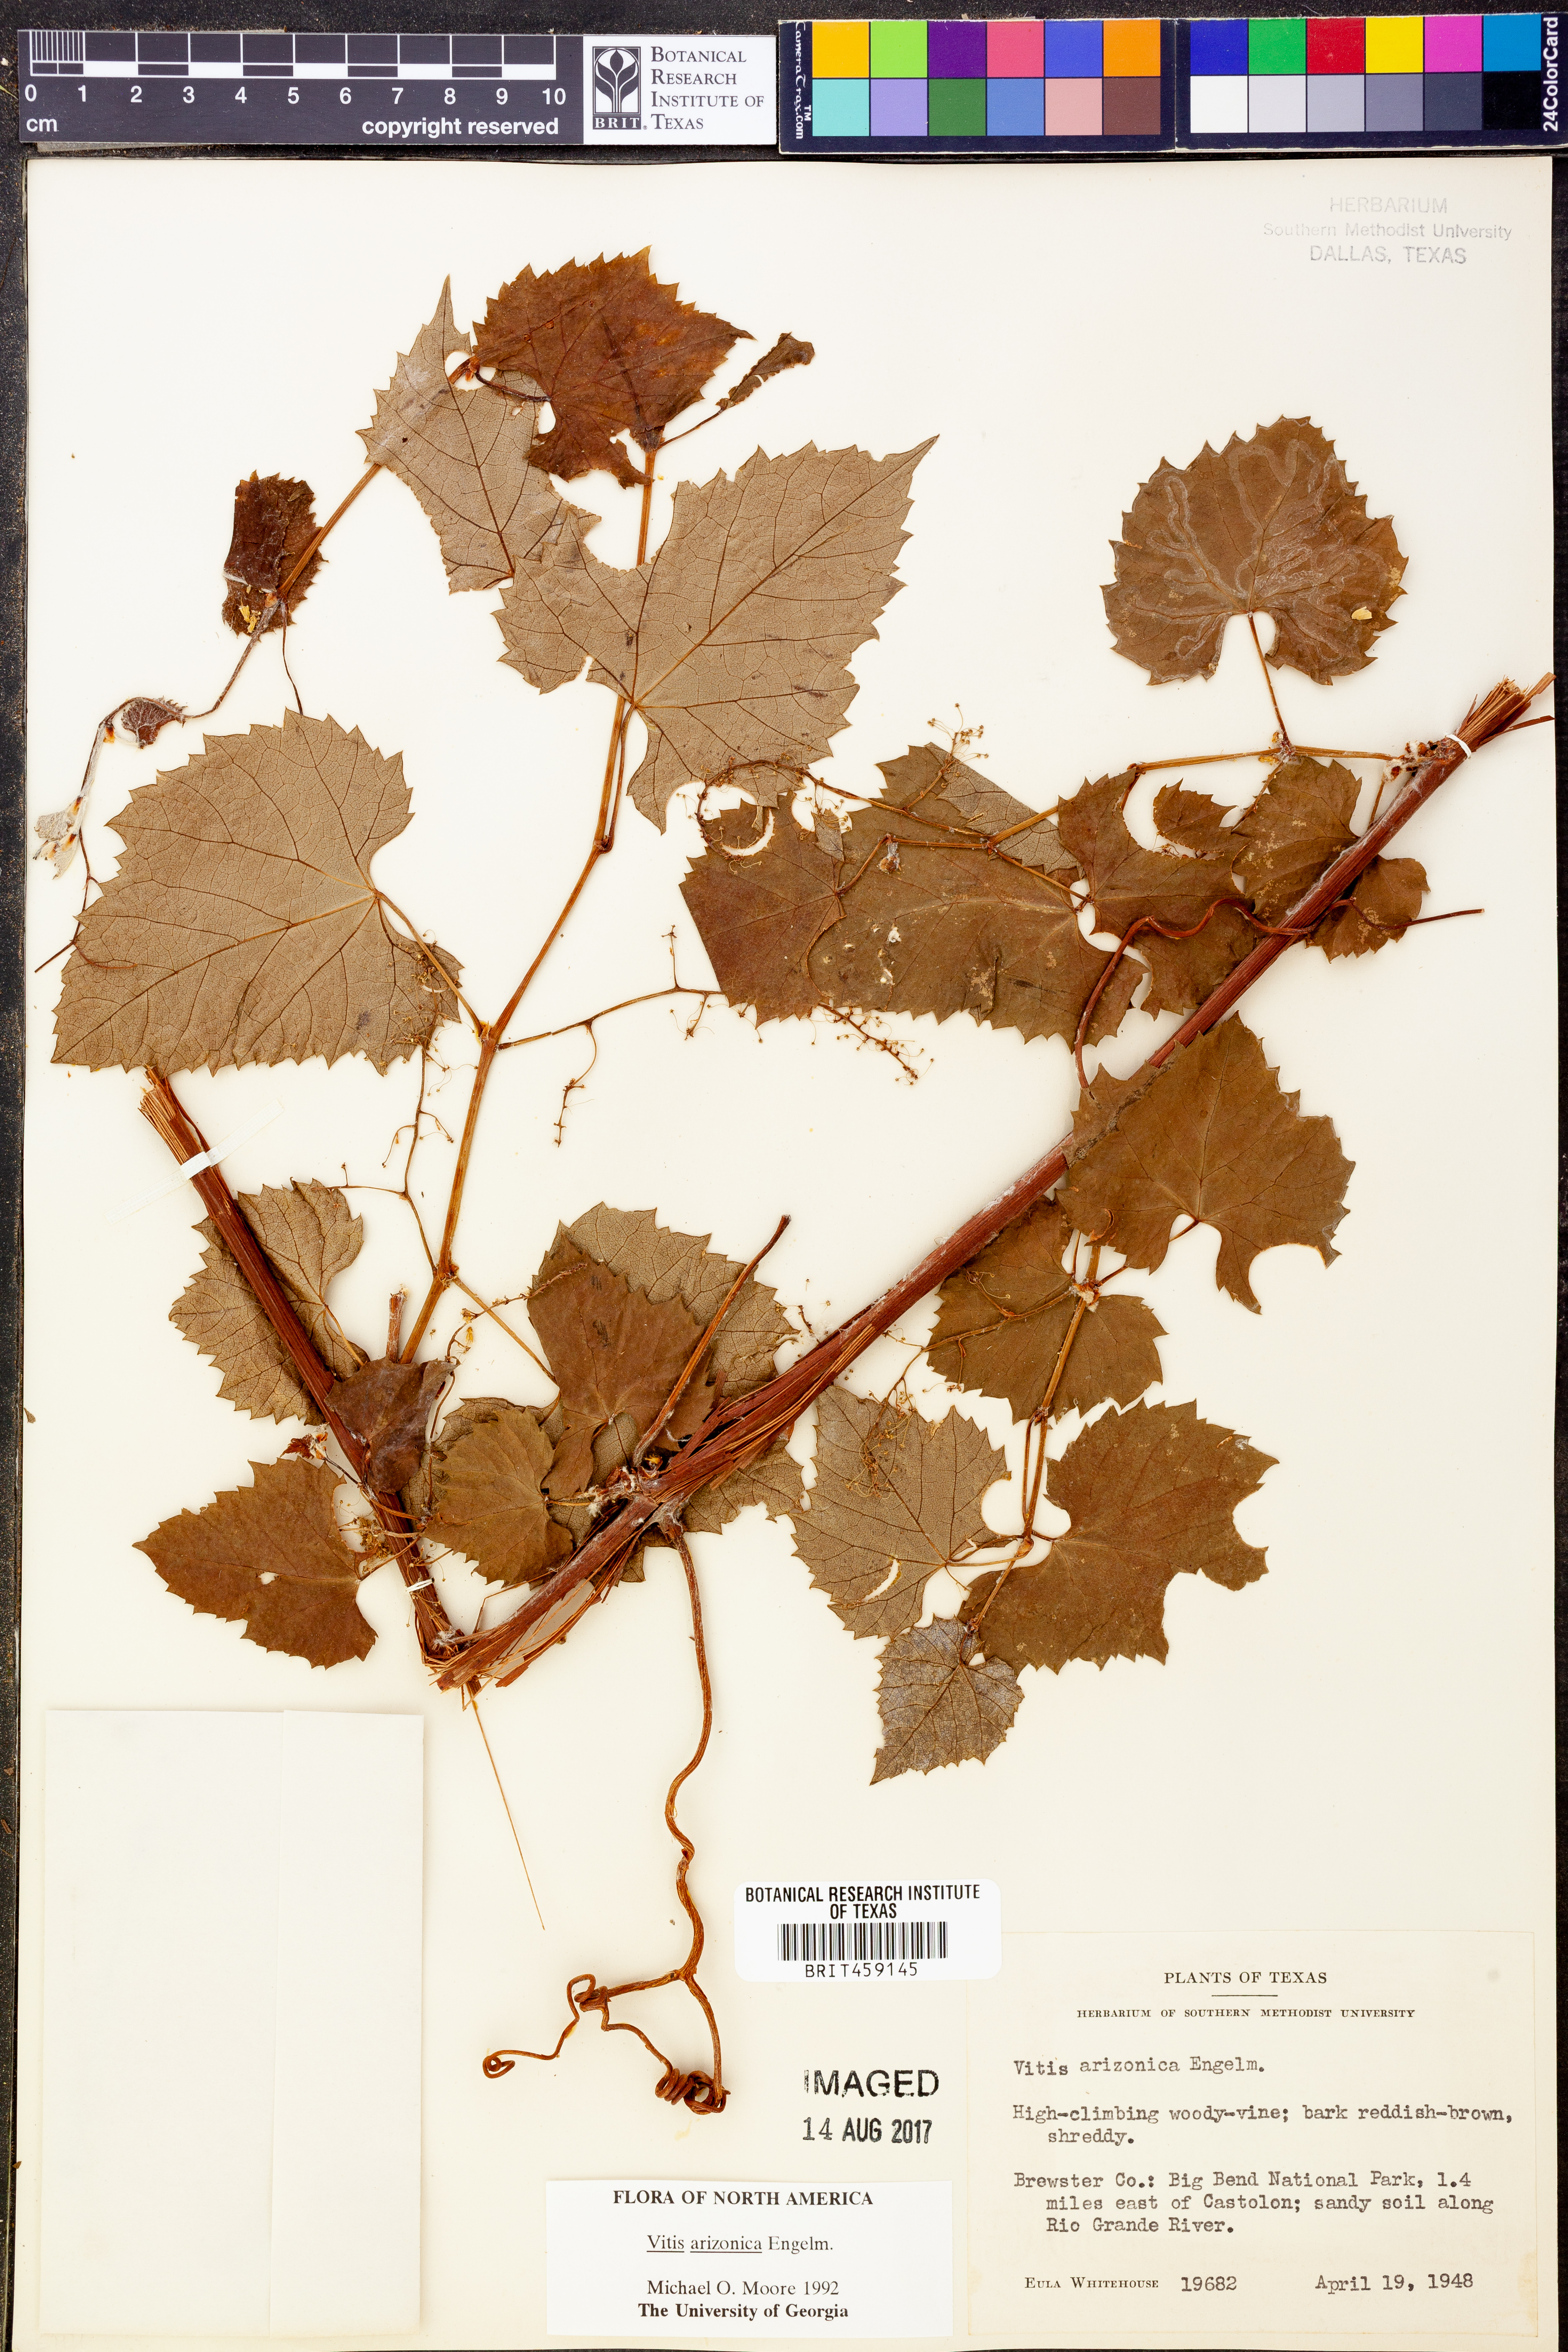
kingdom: Plantae
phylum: Tracheophyta
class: Magnoliopsida
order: Vitales
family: Vitaceae
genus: Vitis
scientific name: Vitis arizonica
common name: Canyon grape
